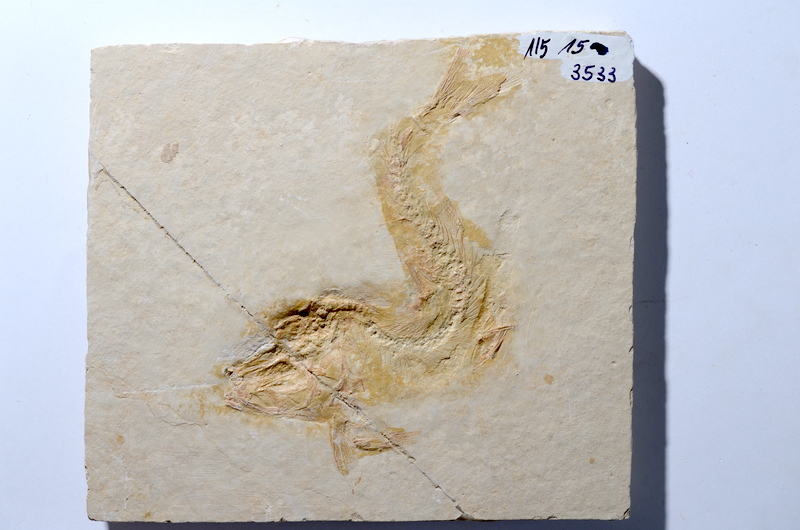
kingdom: Animalia
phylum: Chordata
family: Ascalaboidae
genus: Tharsis
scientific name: Tharsis dubius
